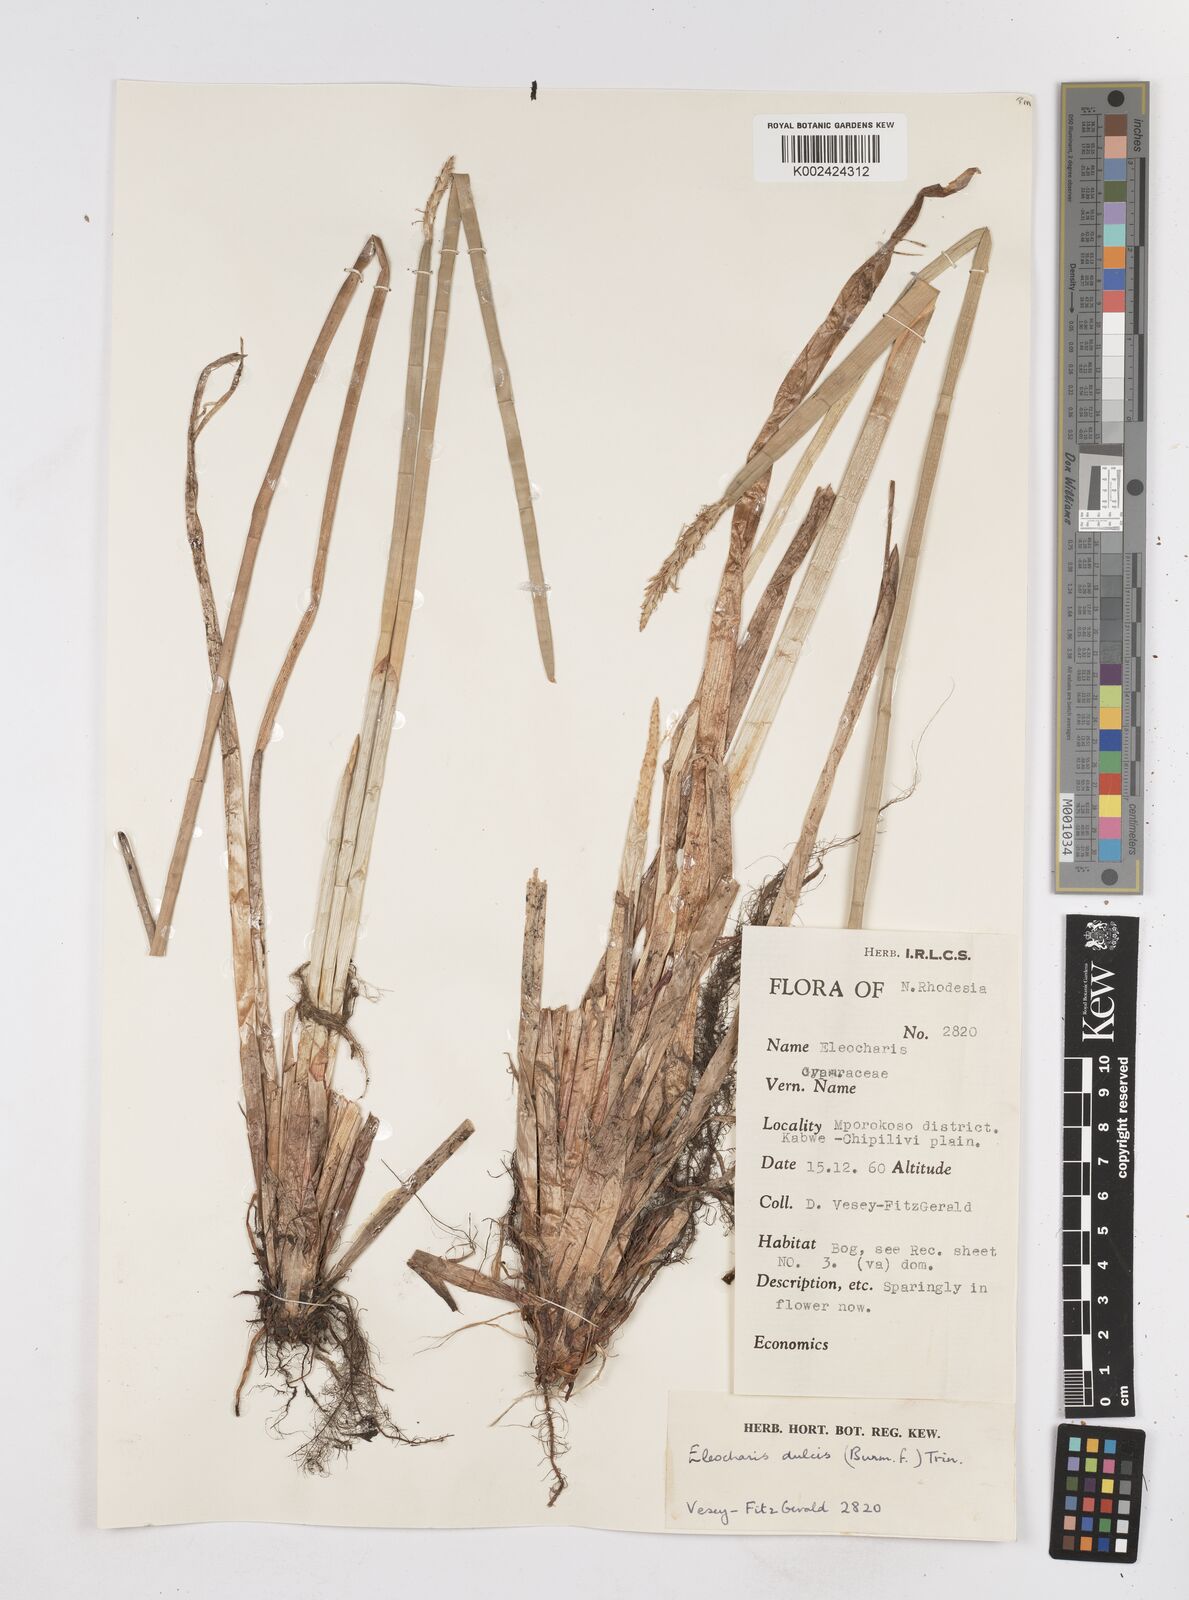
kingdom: Plantae
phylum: Tracheophyta
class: Liliopsida
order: Poales
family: Cyperaceae
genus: Eleocharis
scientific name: Eleocharis dulcis
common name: Chinese water chestnut
